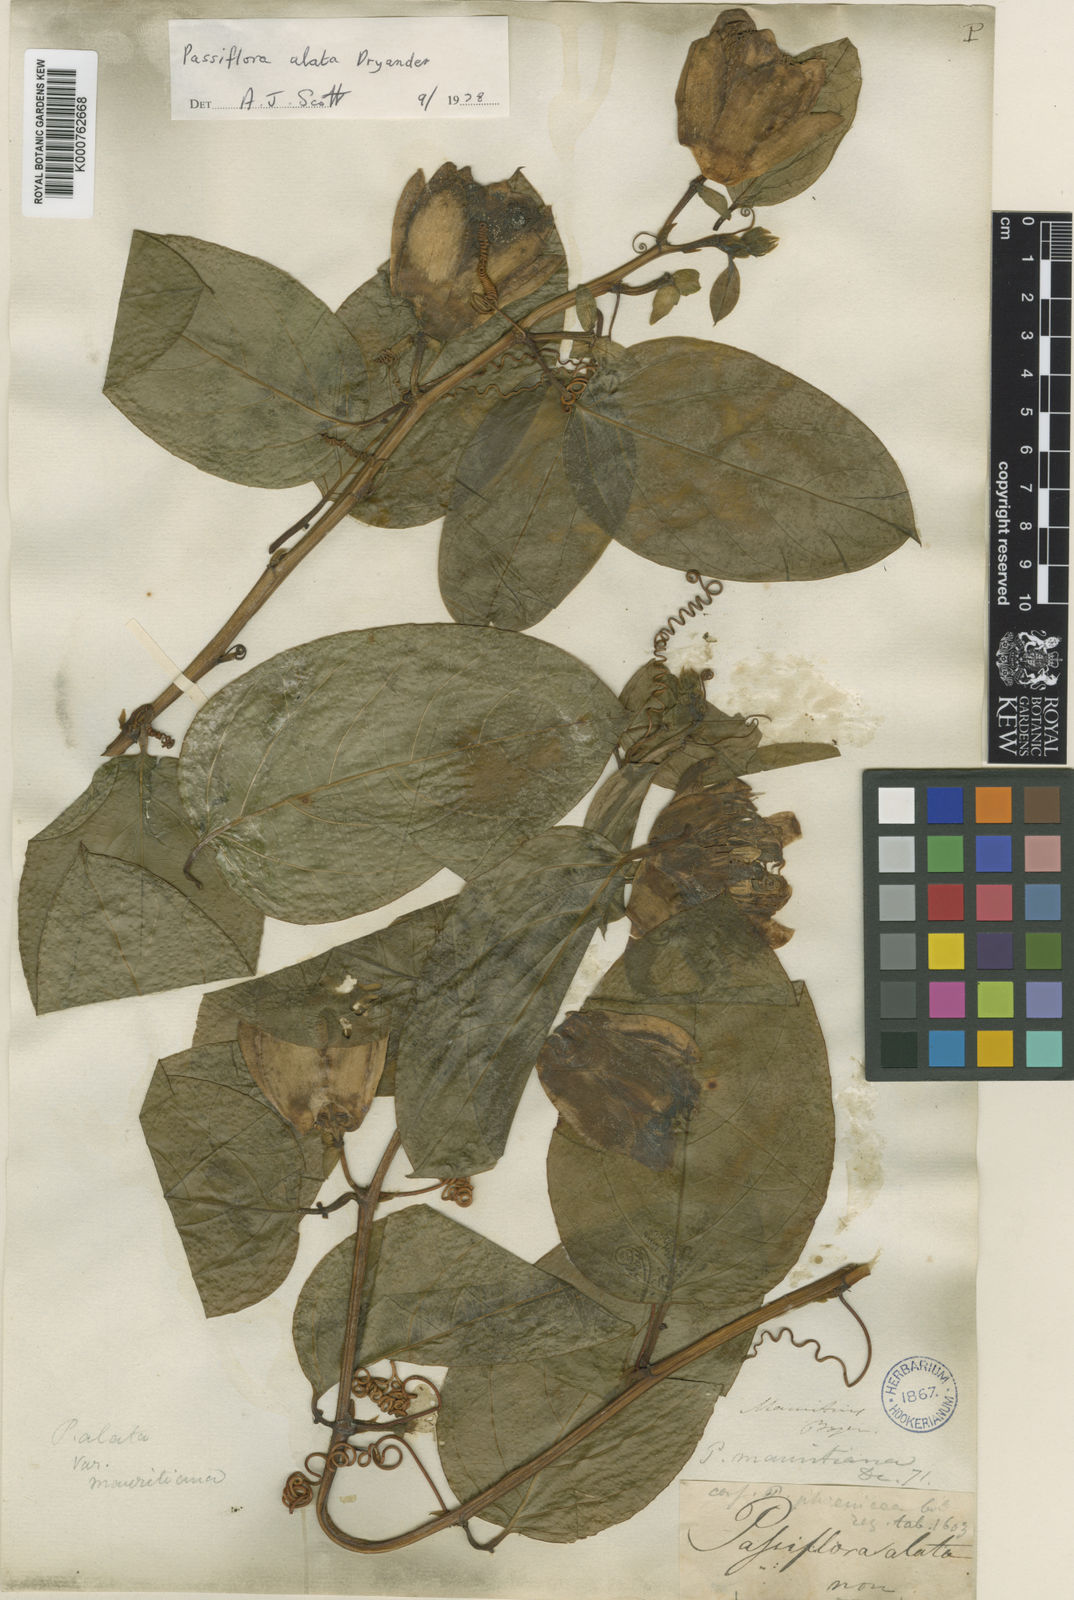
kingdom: Plantae
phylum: Tracheophyta
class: Magnoliopsida
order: Malpighiales
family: Passifloraceae
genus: Passiflora
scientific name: Passiflora alata
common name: Wing-stemmed passion flower
